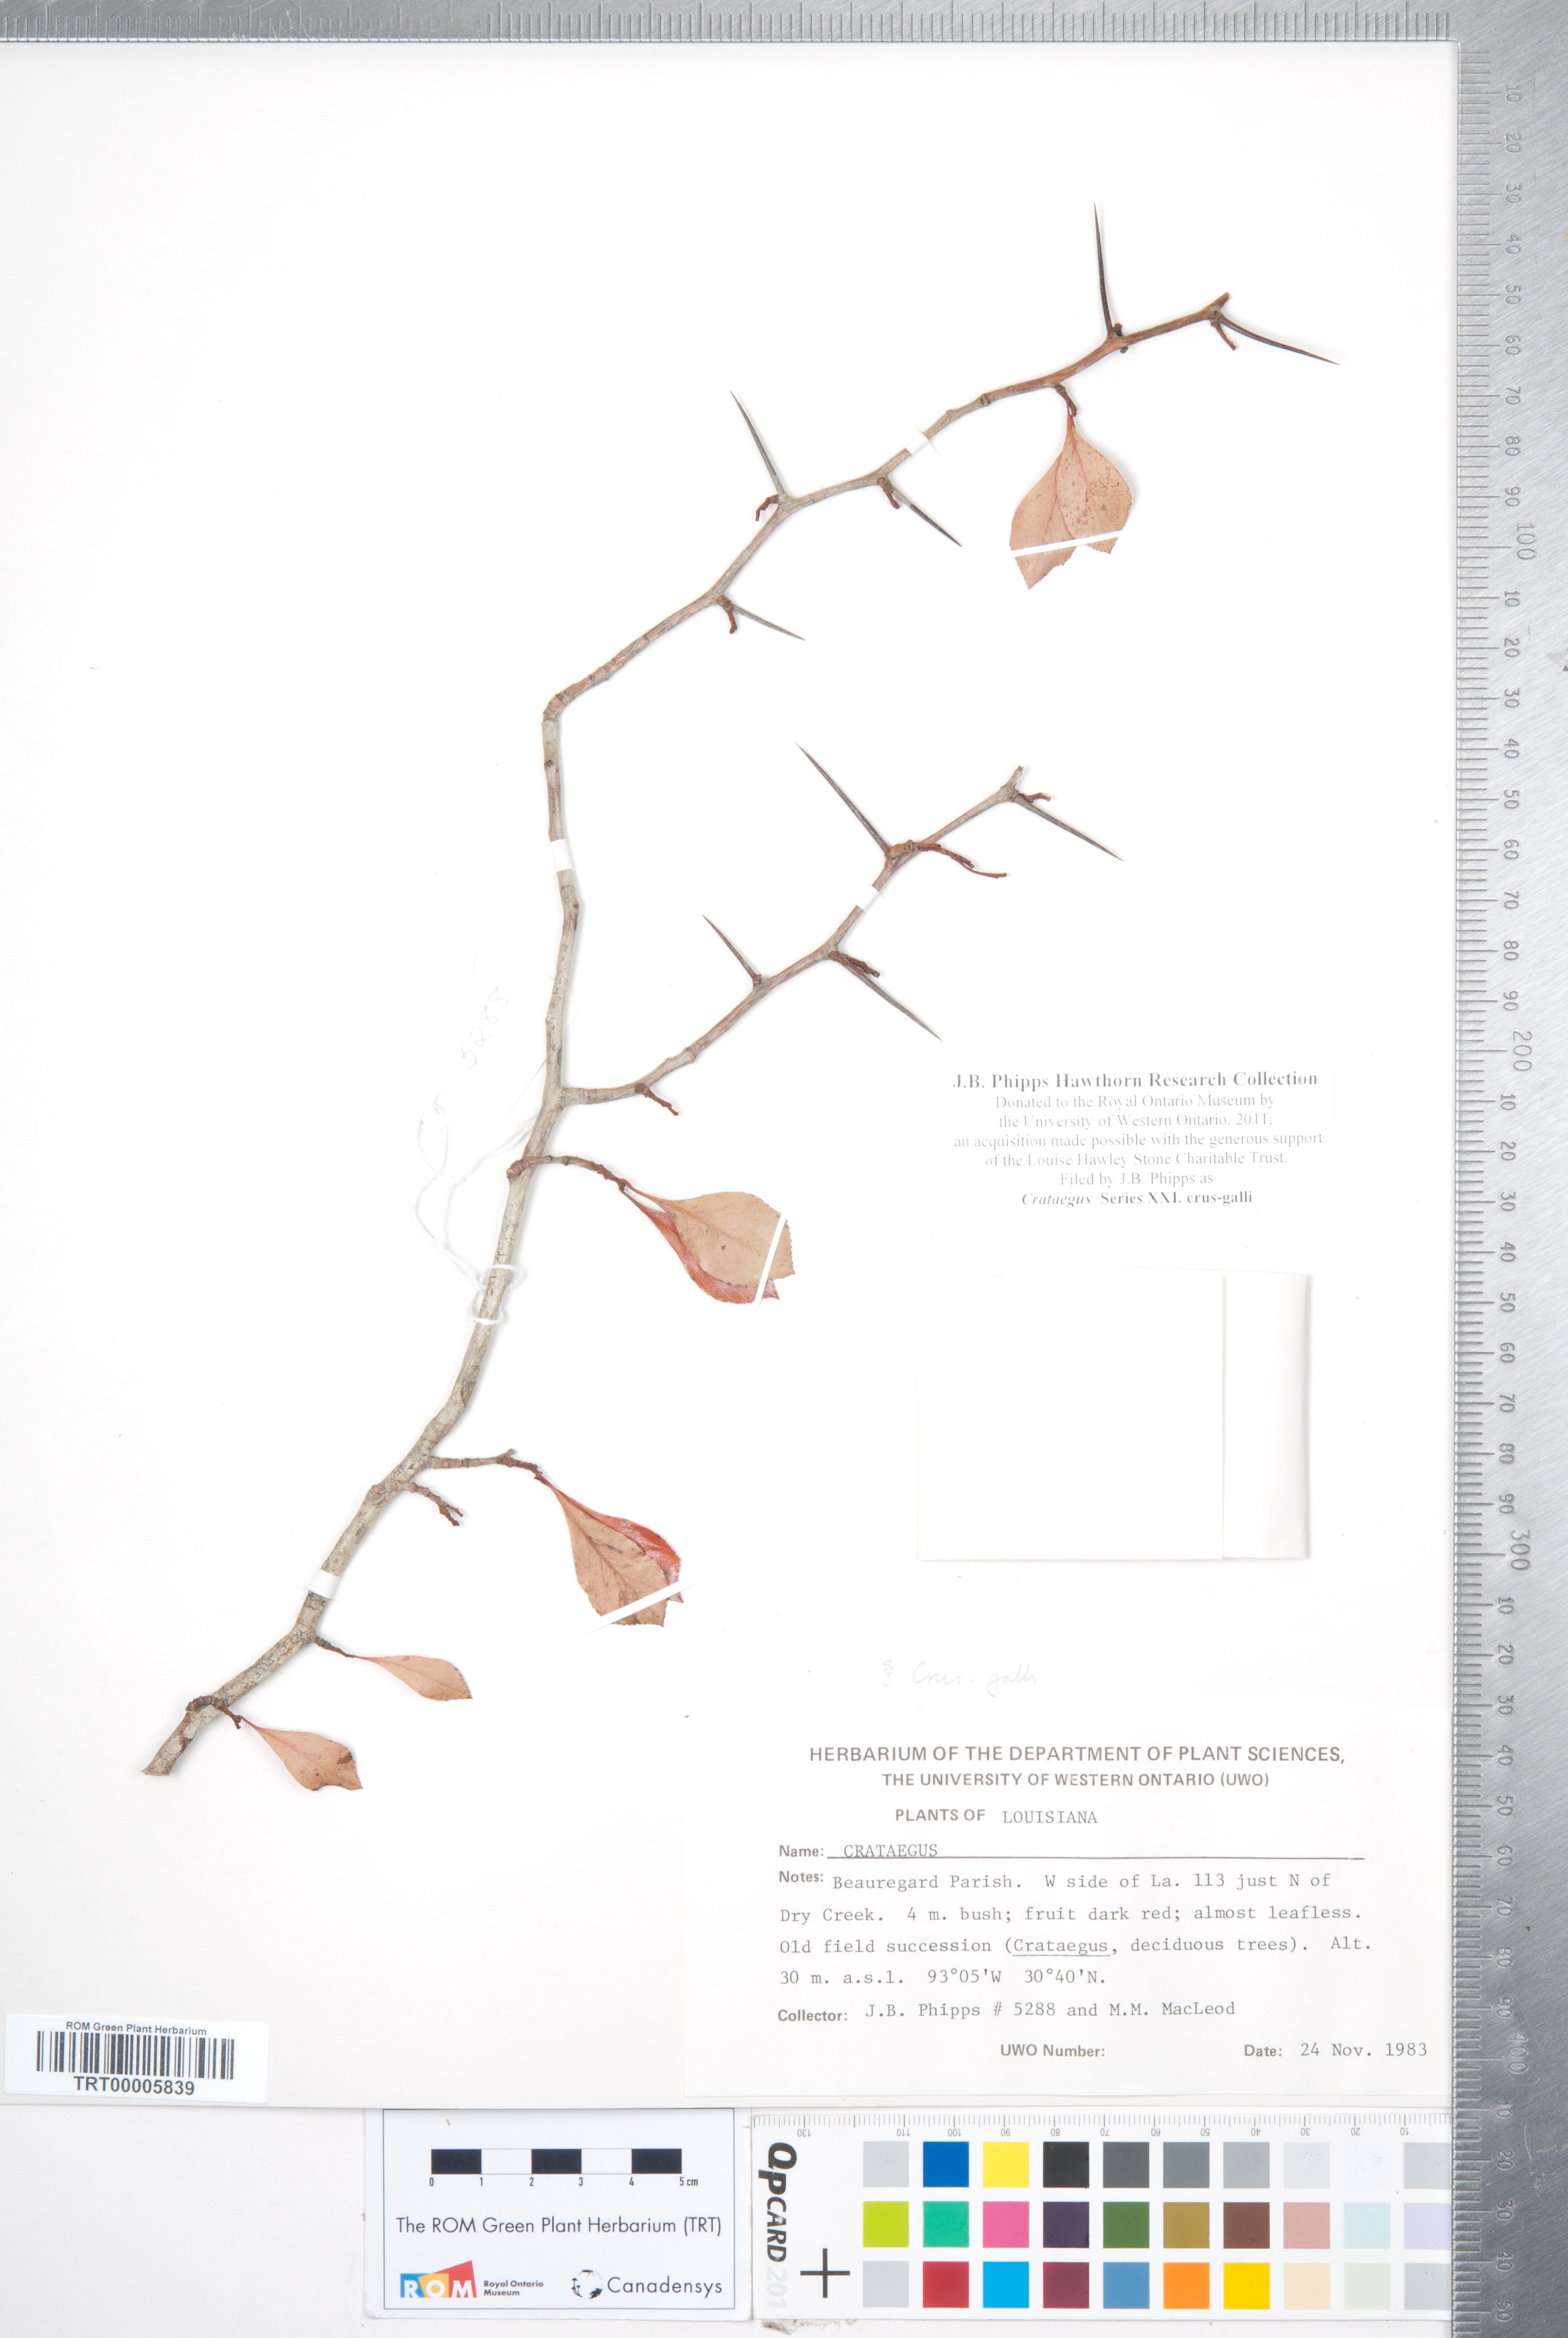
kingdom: Plantae
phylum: Tracheophyta
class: Magnoliopsida
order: Rosales
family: Rosaceae
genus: Crataegus
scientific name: Crataegus
